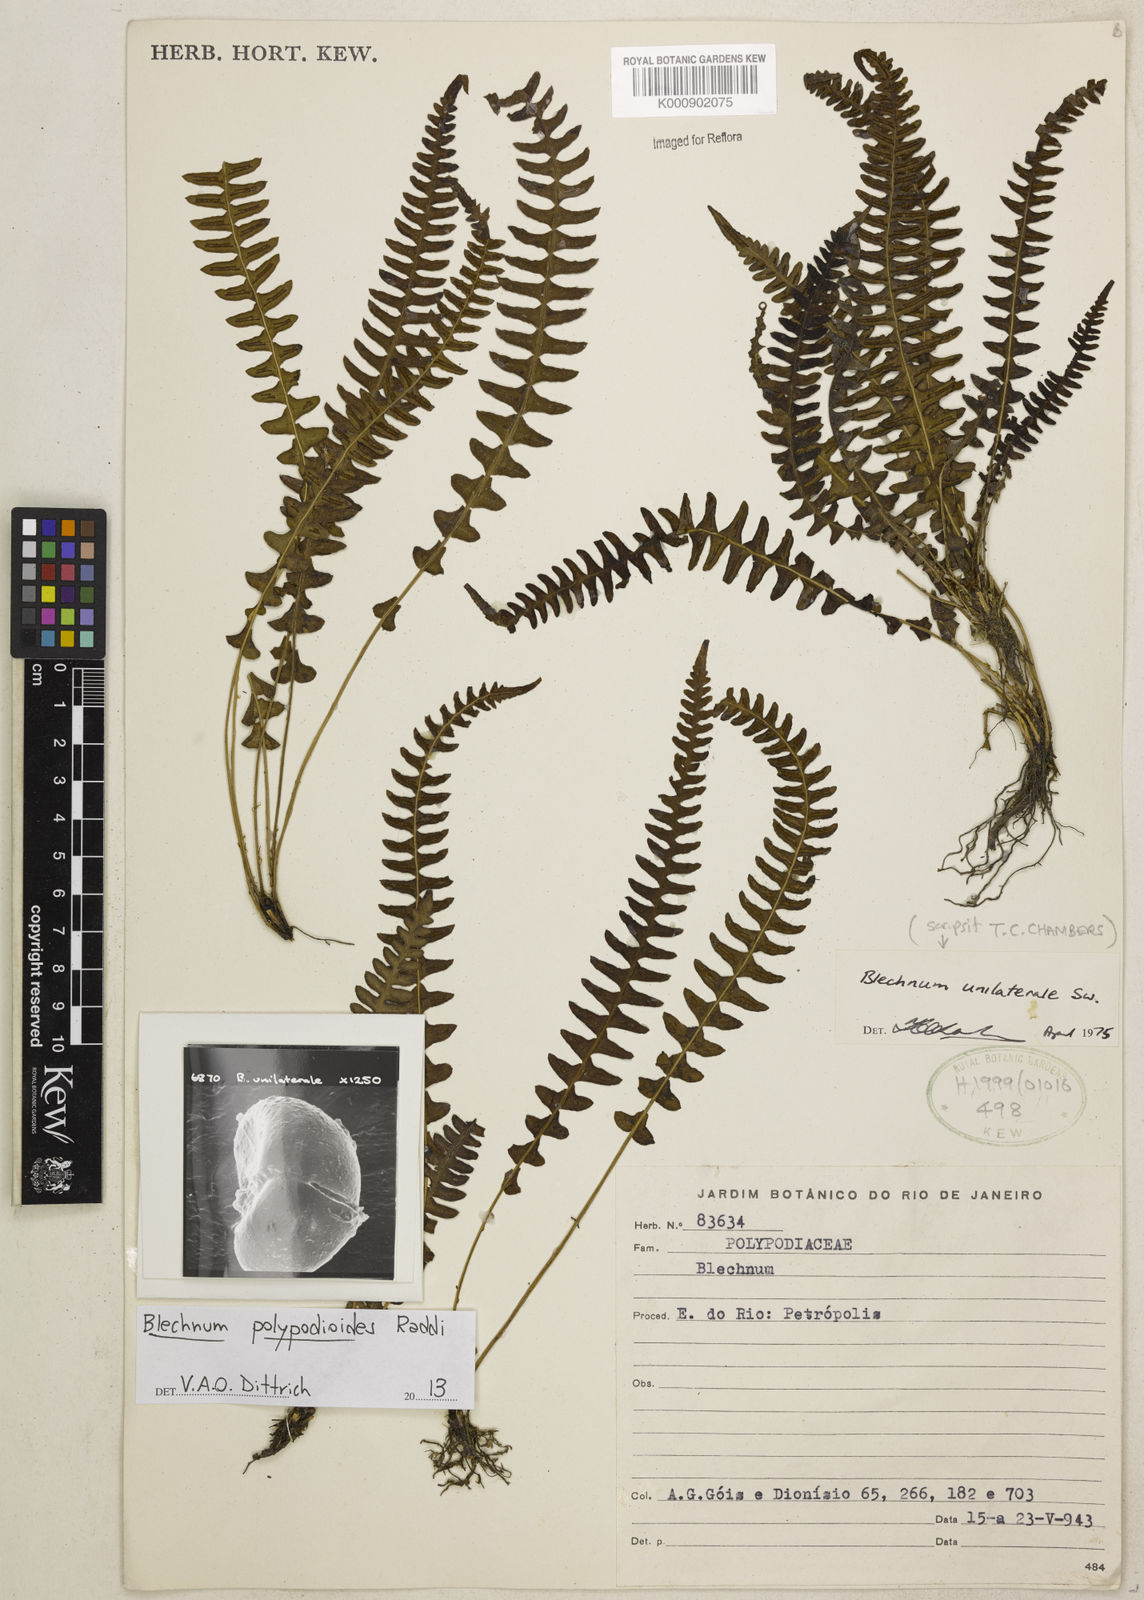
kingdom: Plantae
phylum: Tracheophyta
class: Polypodiopsida
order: Polypodiales
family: Blechnaceae
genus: Blechnum
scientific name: Blechnum polypodioides
